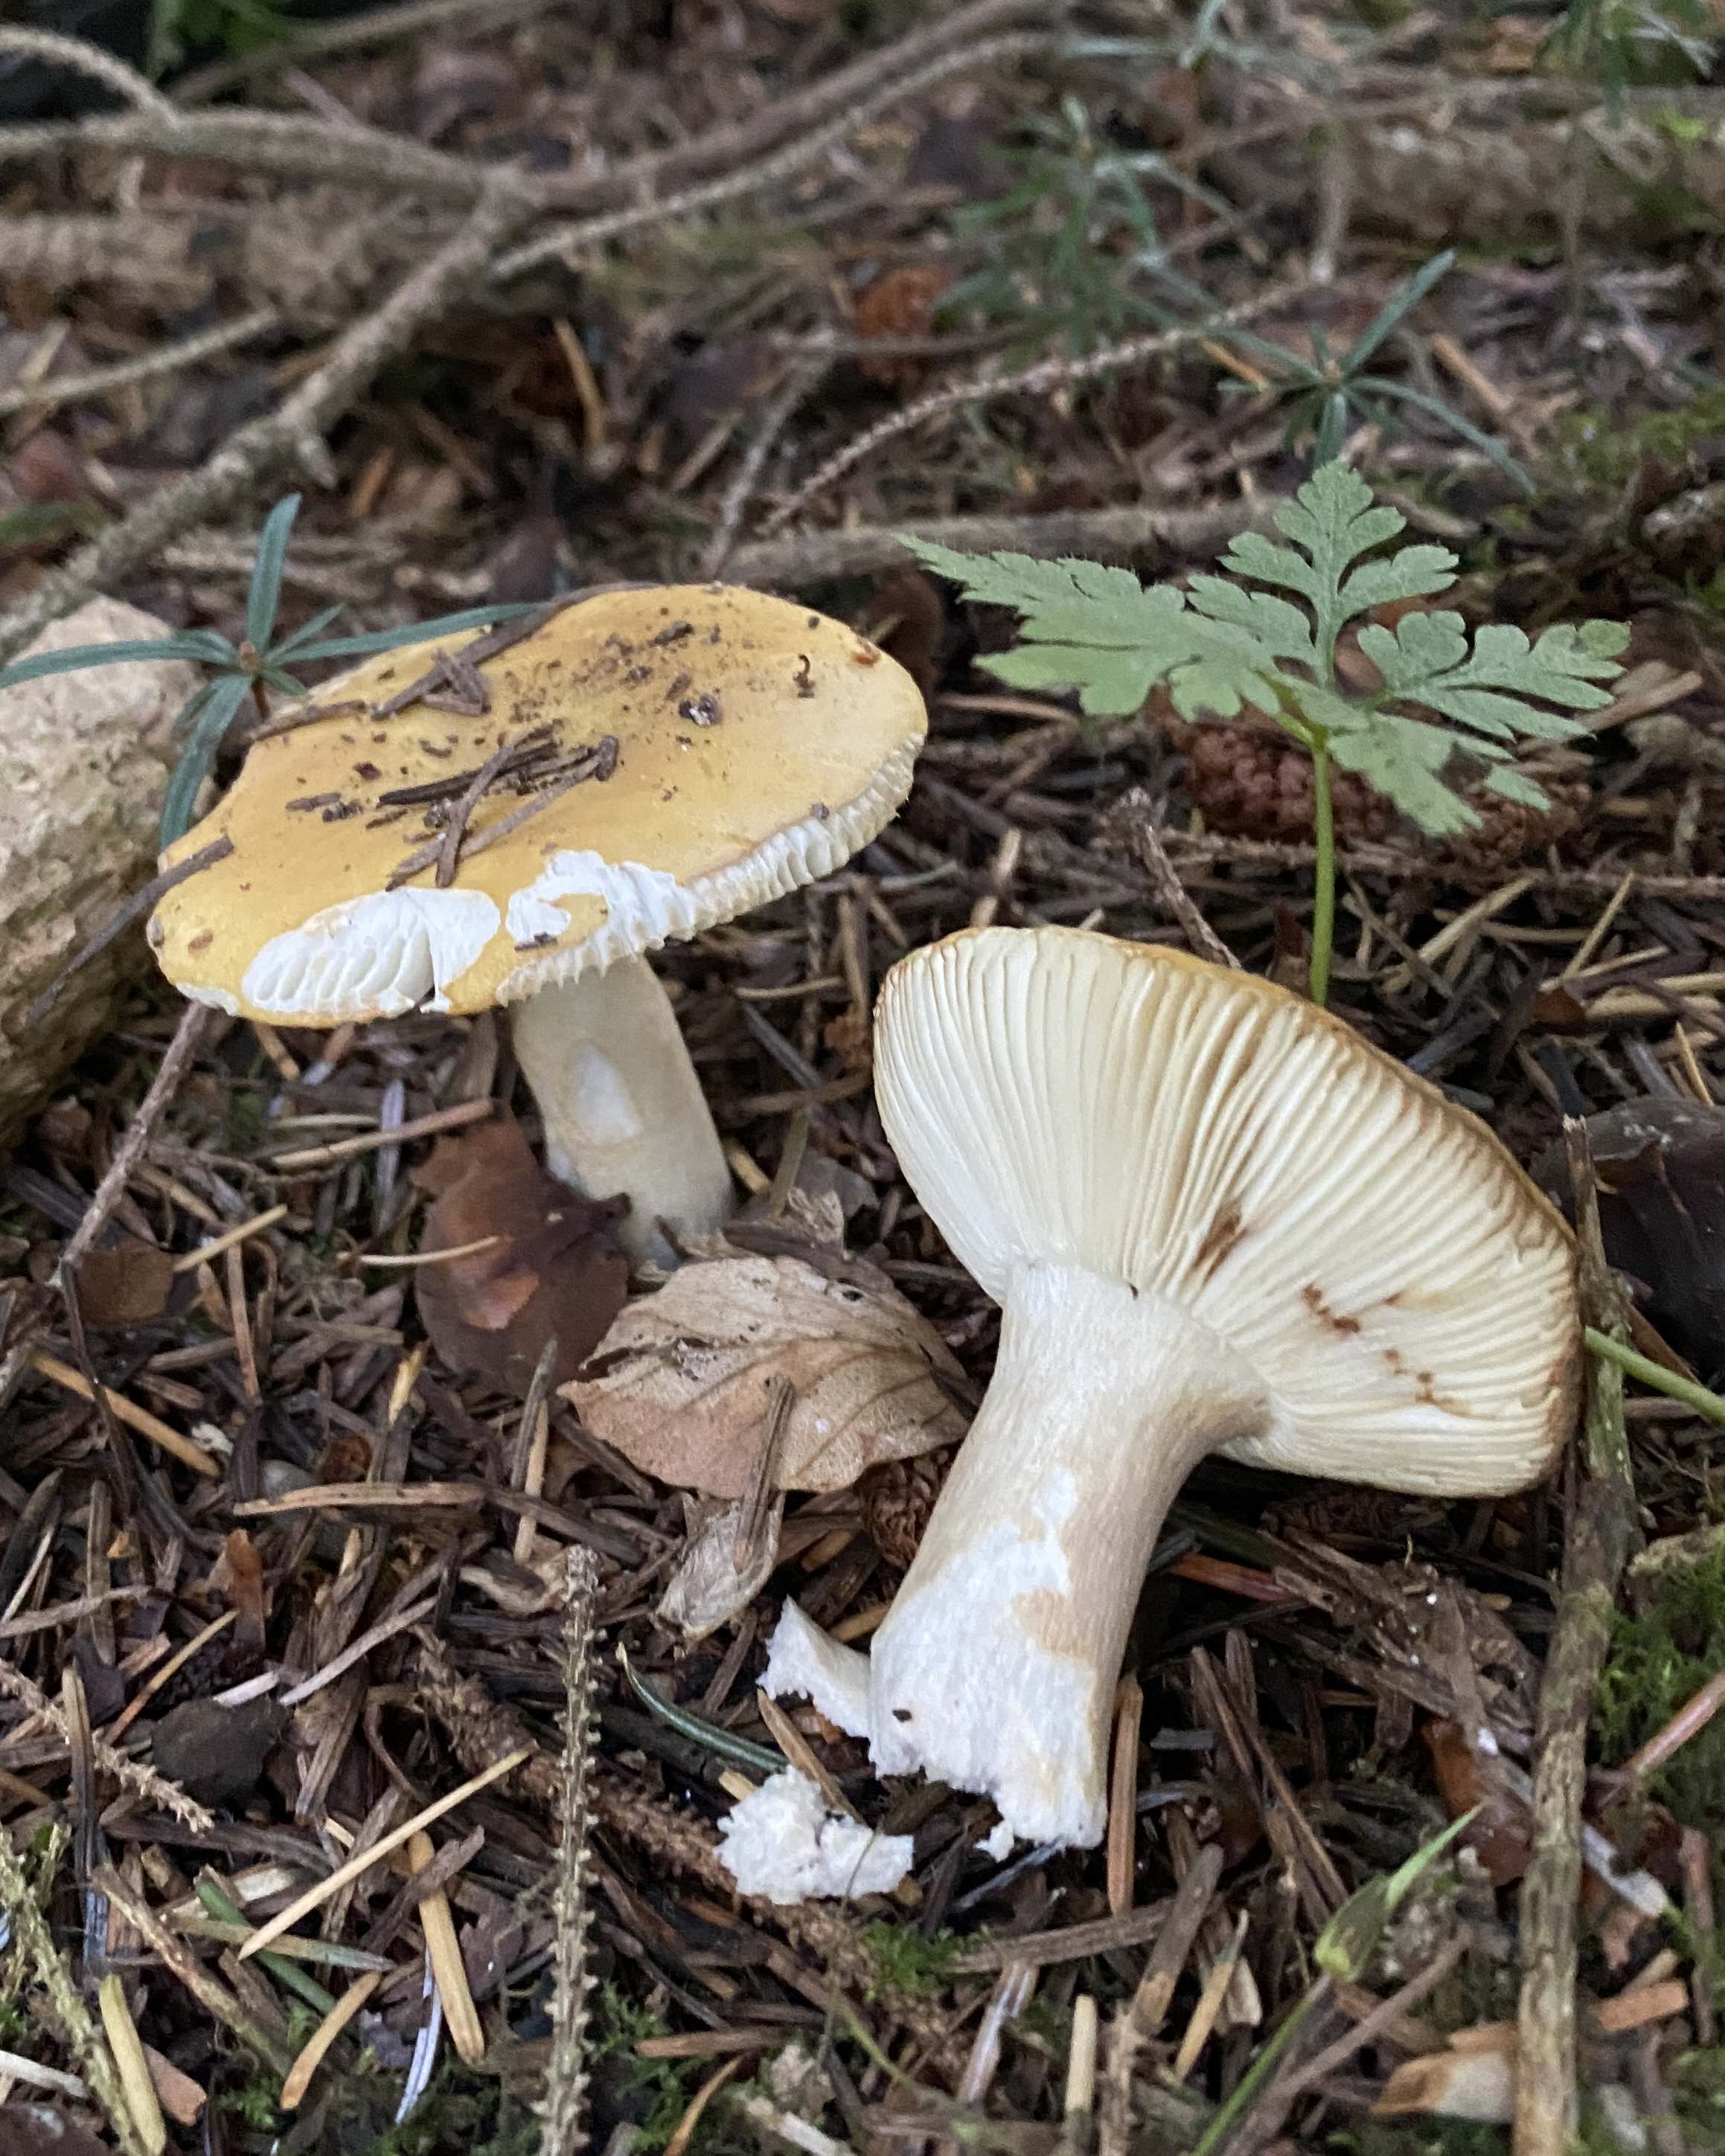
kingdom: Fungi
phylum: Basidiomycota
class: Agaricomycetes
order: Russulales
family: Russulaceae
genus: Russula
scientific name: Russula ochroleuca
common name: okkergul skørhat
